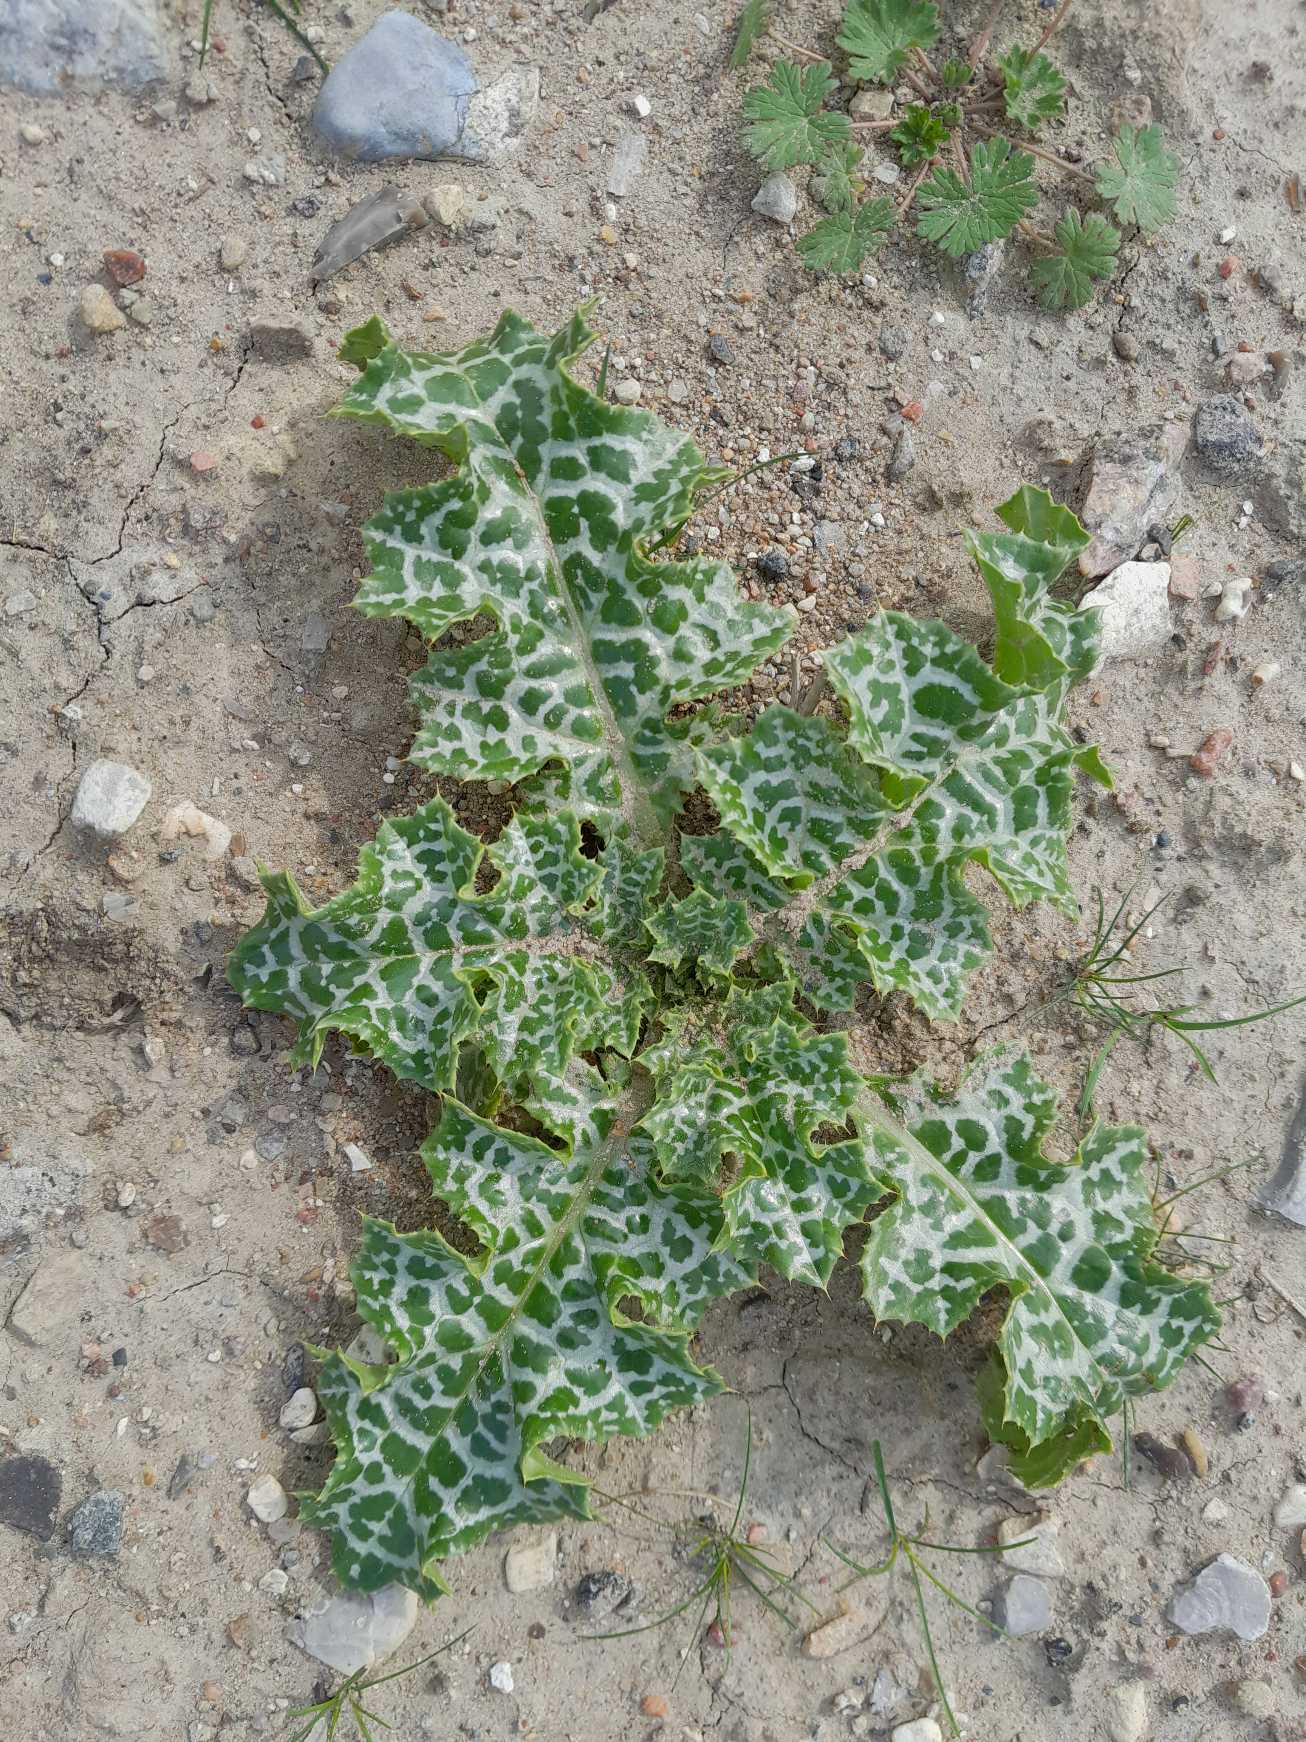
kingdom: Plantae
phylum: Tracheophyta
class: Magnoliopsida
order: Asterales
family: Asteraceae
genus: Silybum
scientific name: Silybum marianum
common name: Marietidsel
